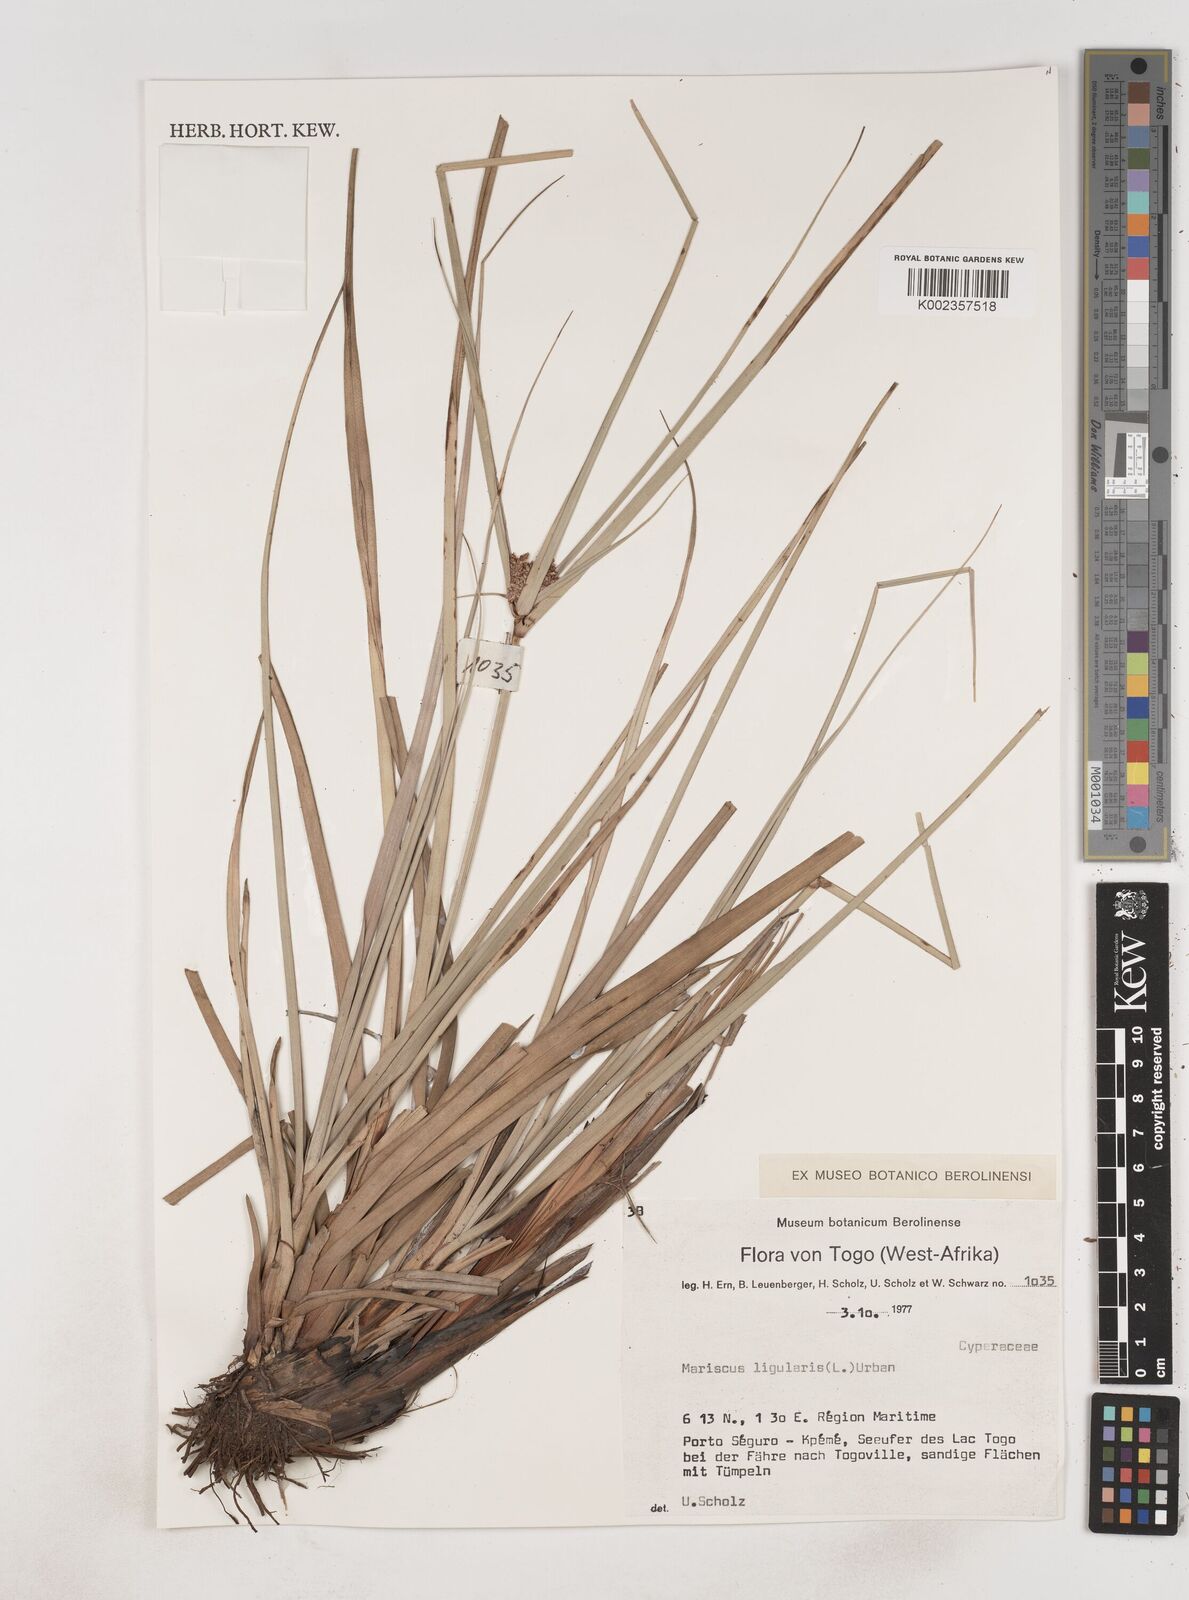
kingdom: Plantae
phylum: Tracheophyta
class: Liliopsida
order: Poales
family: Cyperaceae
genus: Cyperus
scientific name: Cyperus ligularis
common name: Swamp flat sedge
